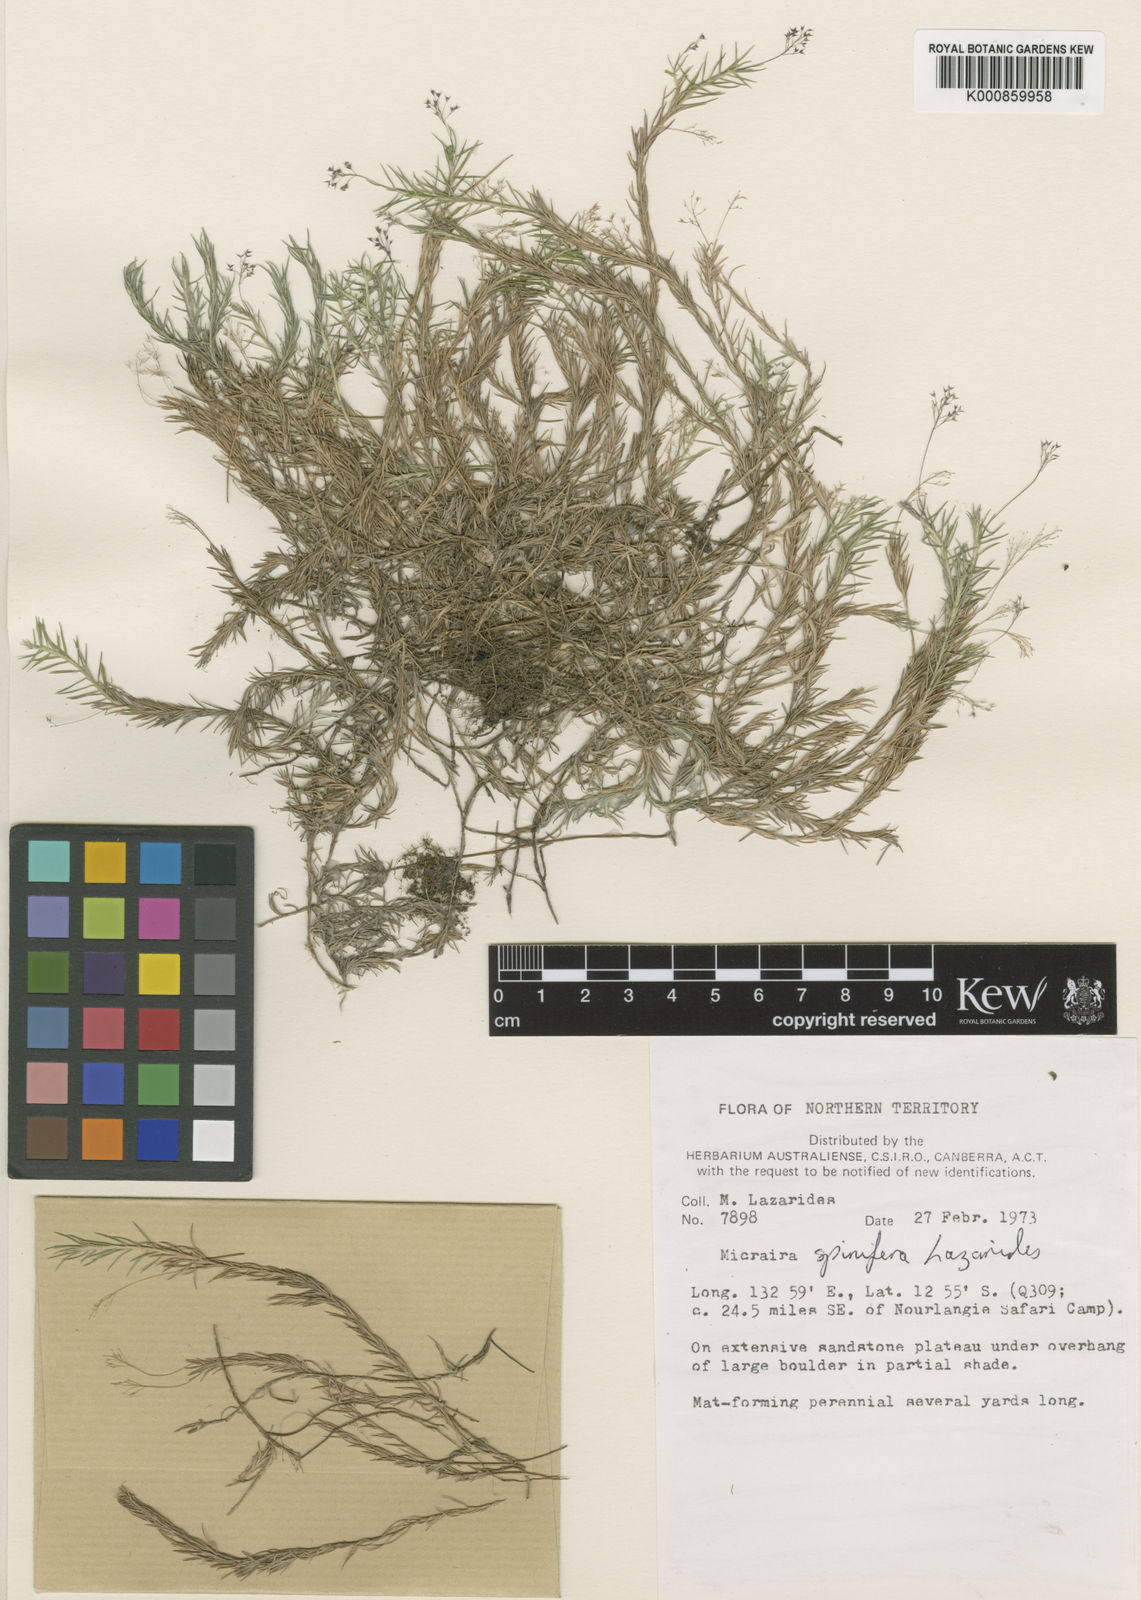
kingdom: Plantae
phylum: Tracheophyta
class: Liliopsida
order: Poales
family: Poaceae
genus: Micraira
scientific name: Micraira spinifera
